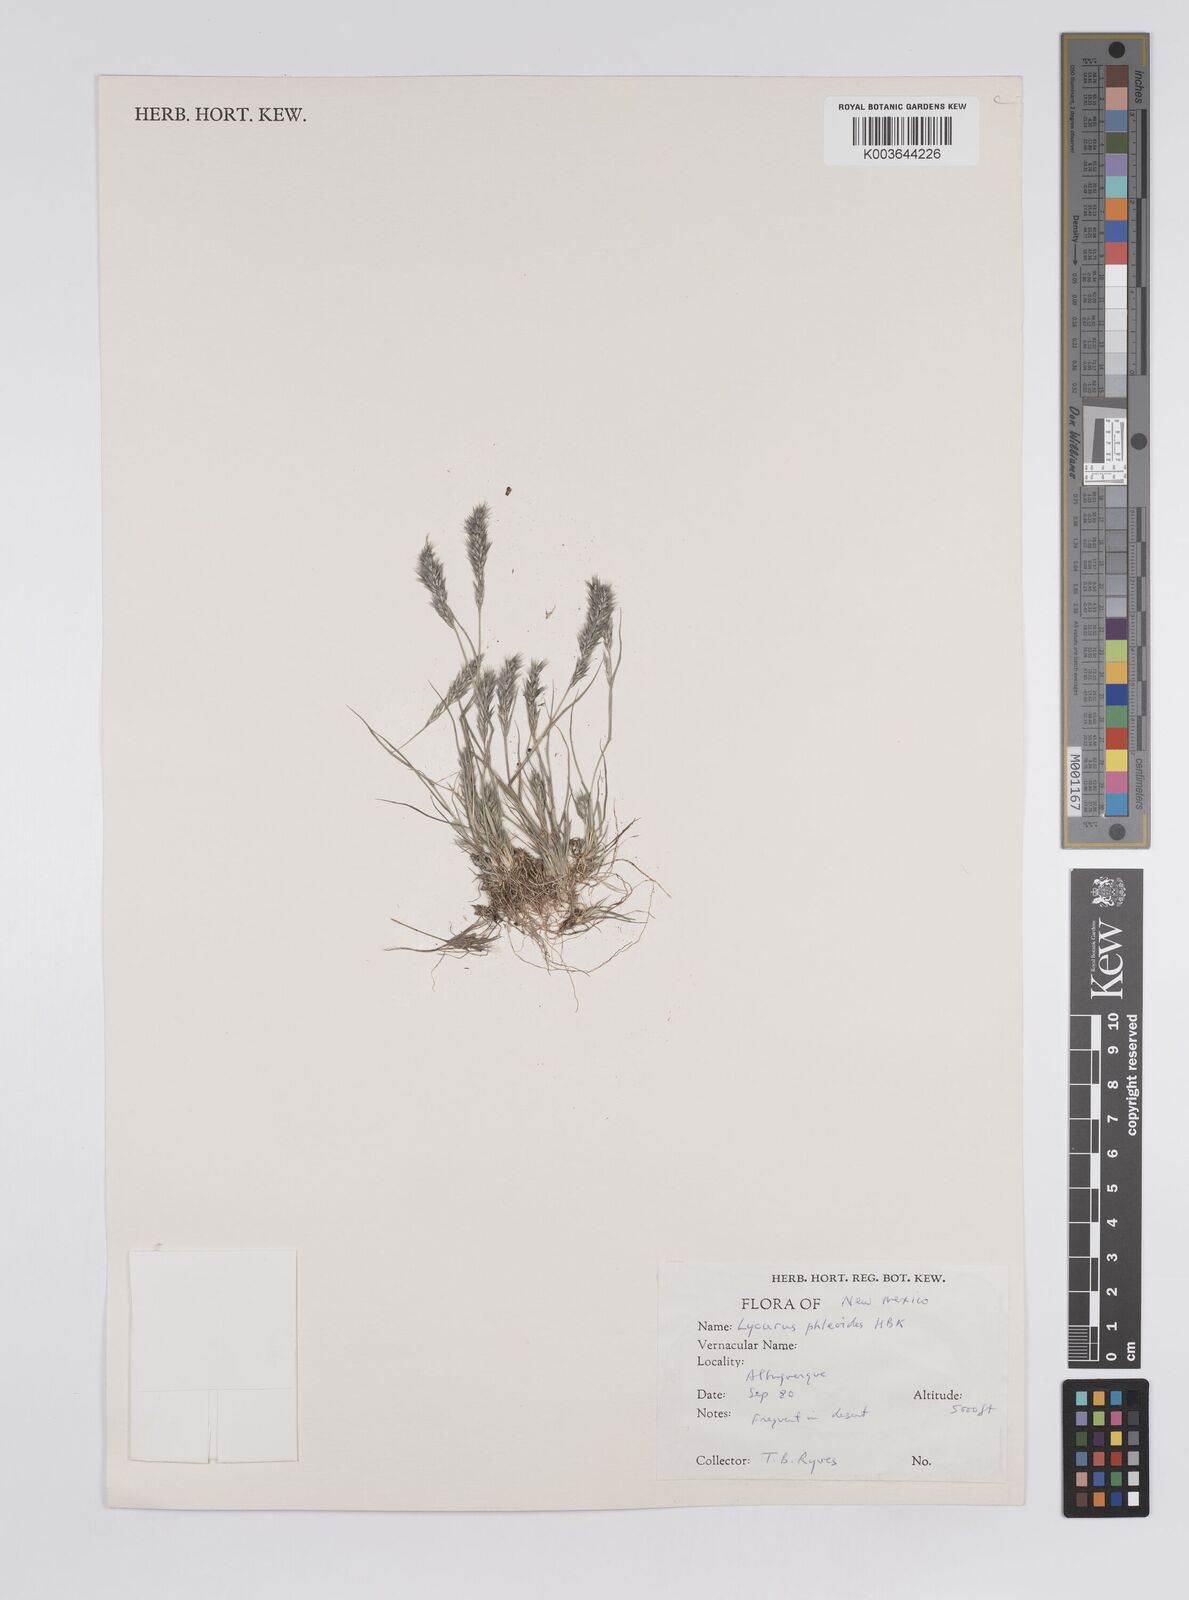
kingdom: Plantae
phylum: Tracheophyta
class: Liliopsida
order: Poales
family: Poaceae
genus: Enneapogon
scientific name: Enneapogon desvauxii
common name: Feather pappus grass
